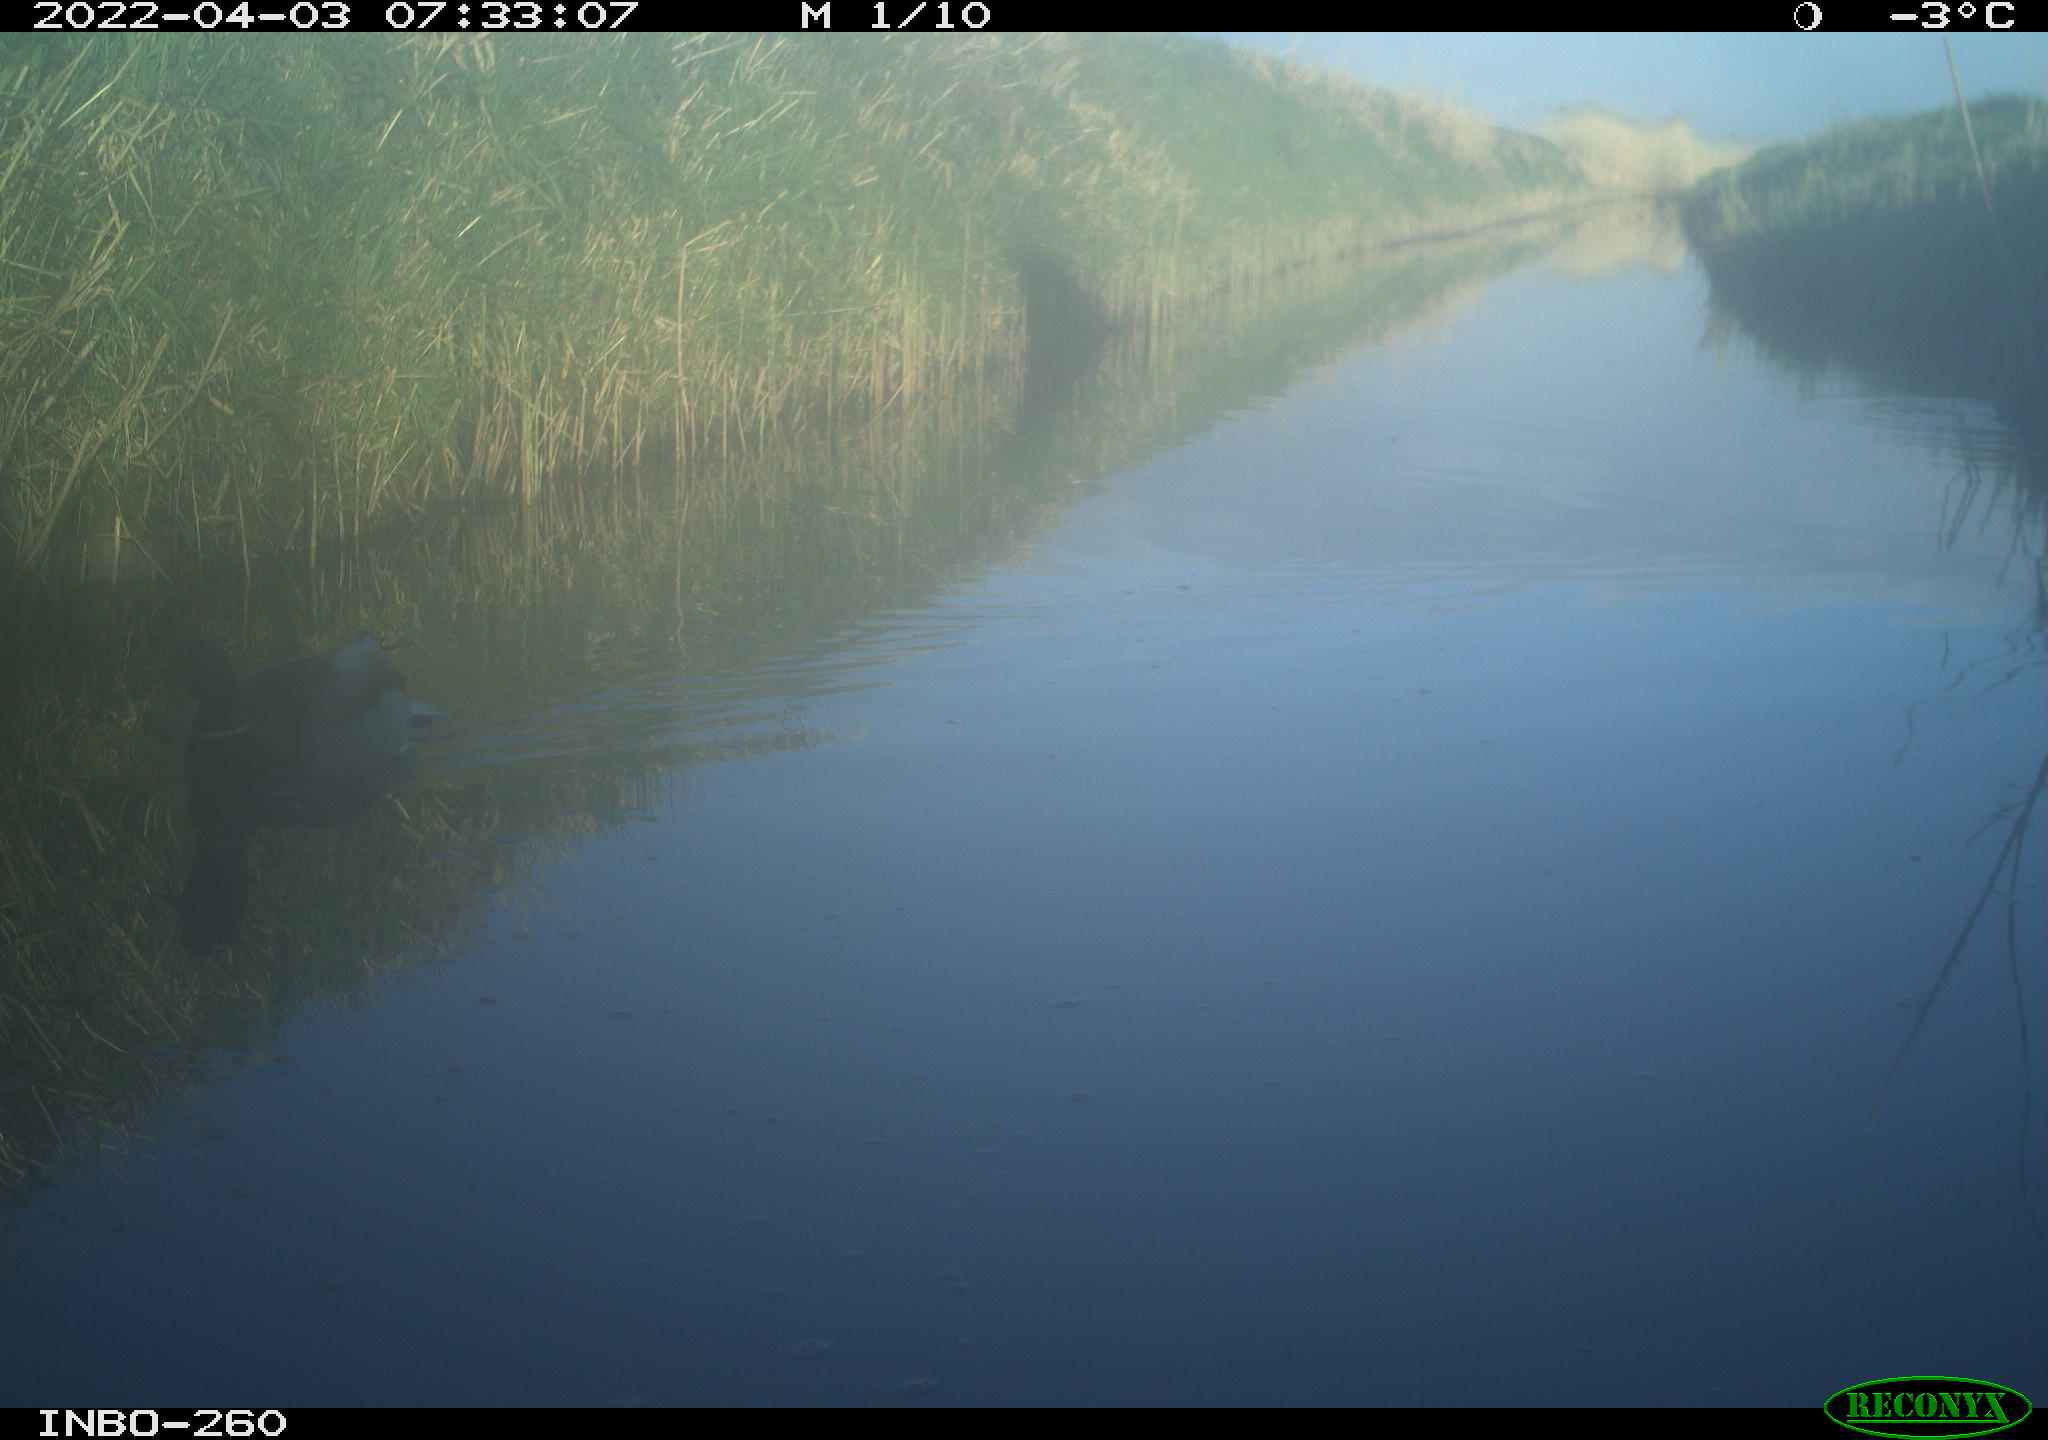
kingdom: Animalia
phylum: Chordata
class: Aves
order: Anseriformes
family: Anatidae
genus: Anas
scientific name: Anas platyrhynchos
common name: Mallard
